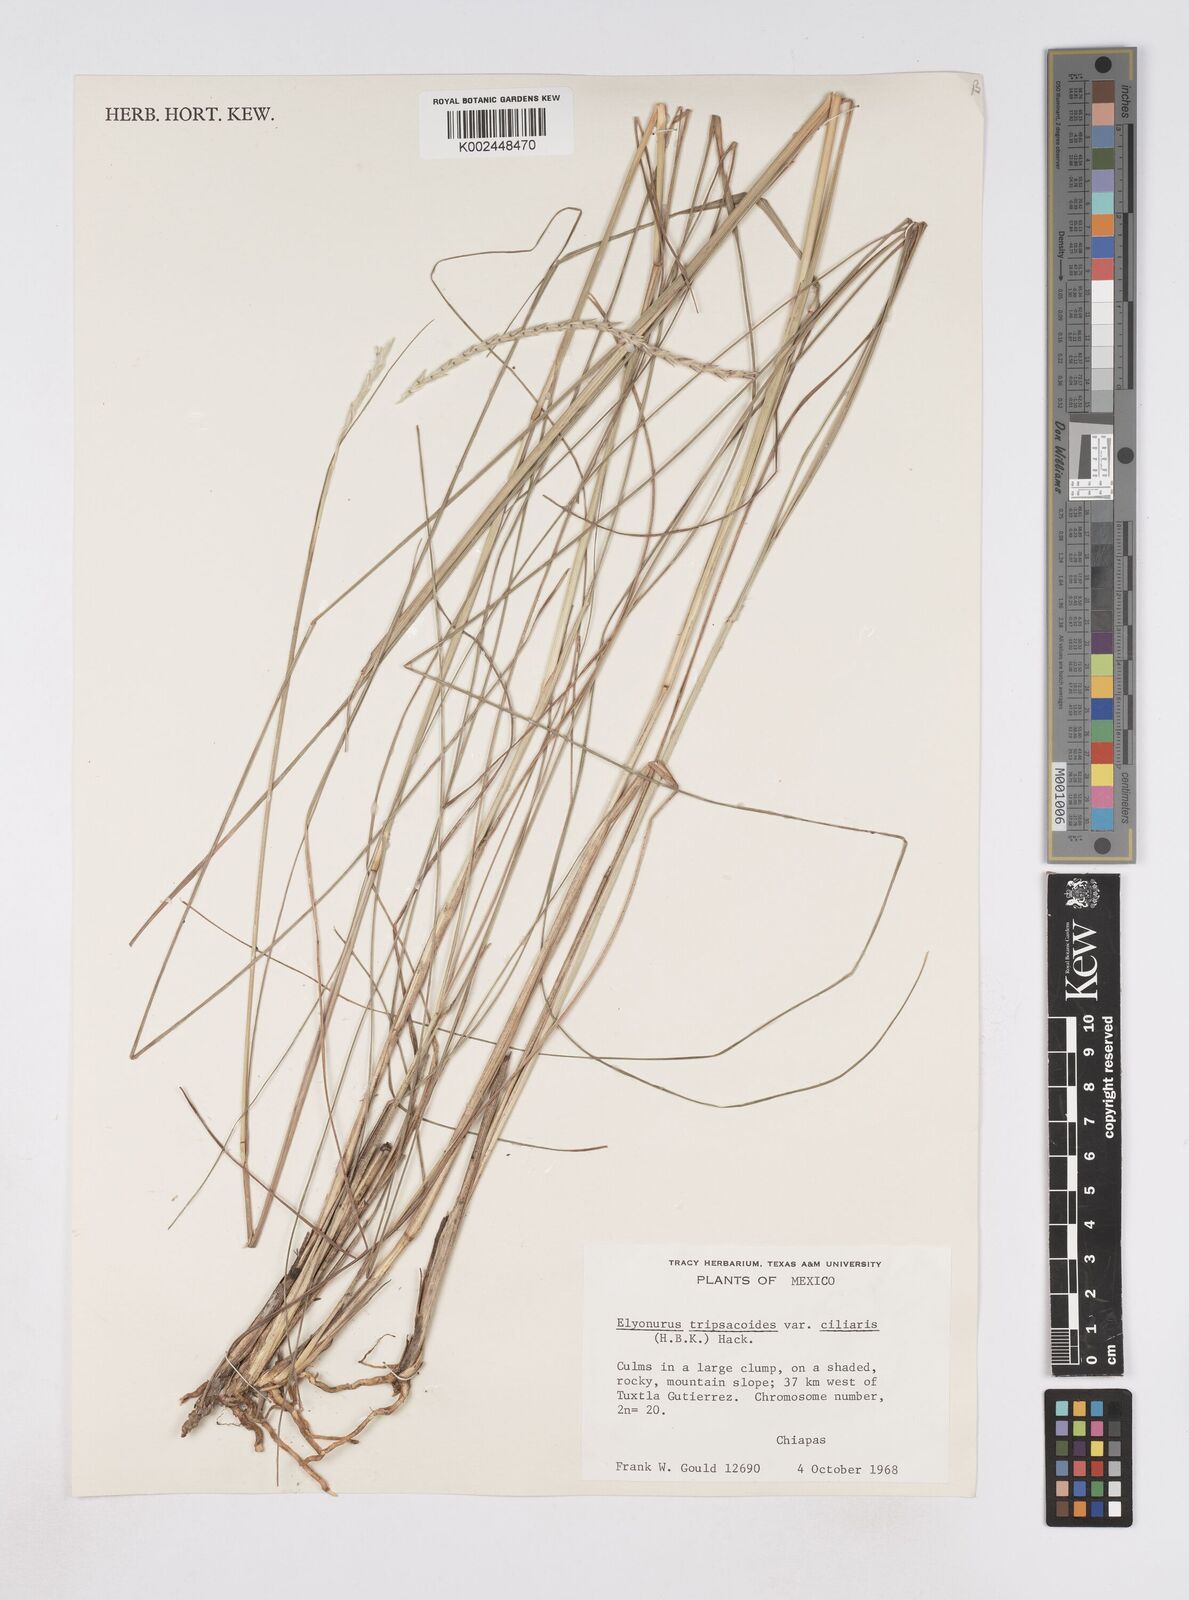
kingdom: Plantae
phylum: Tracheophyta
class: Liliopsida
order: Poales
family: Poaceae
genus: Elionurus
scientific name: Elionurus ciliaris
